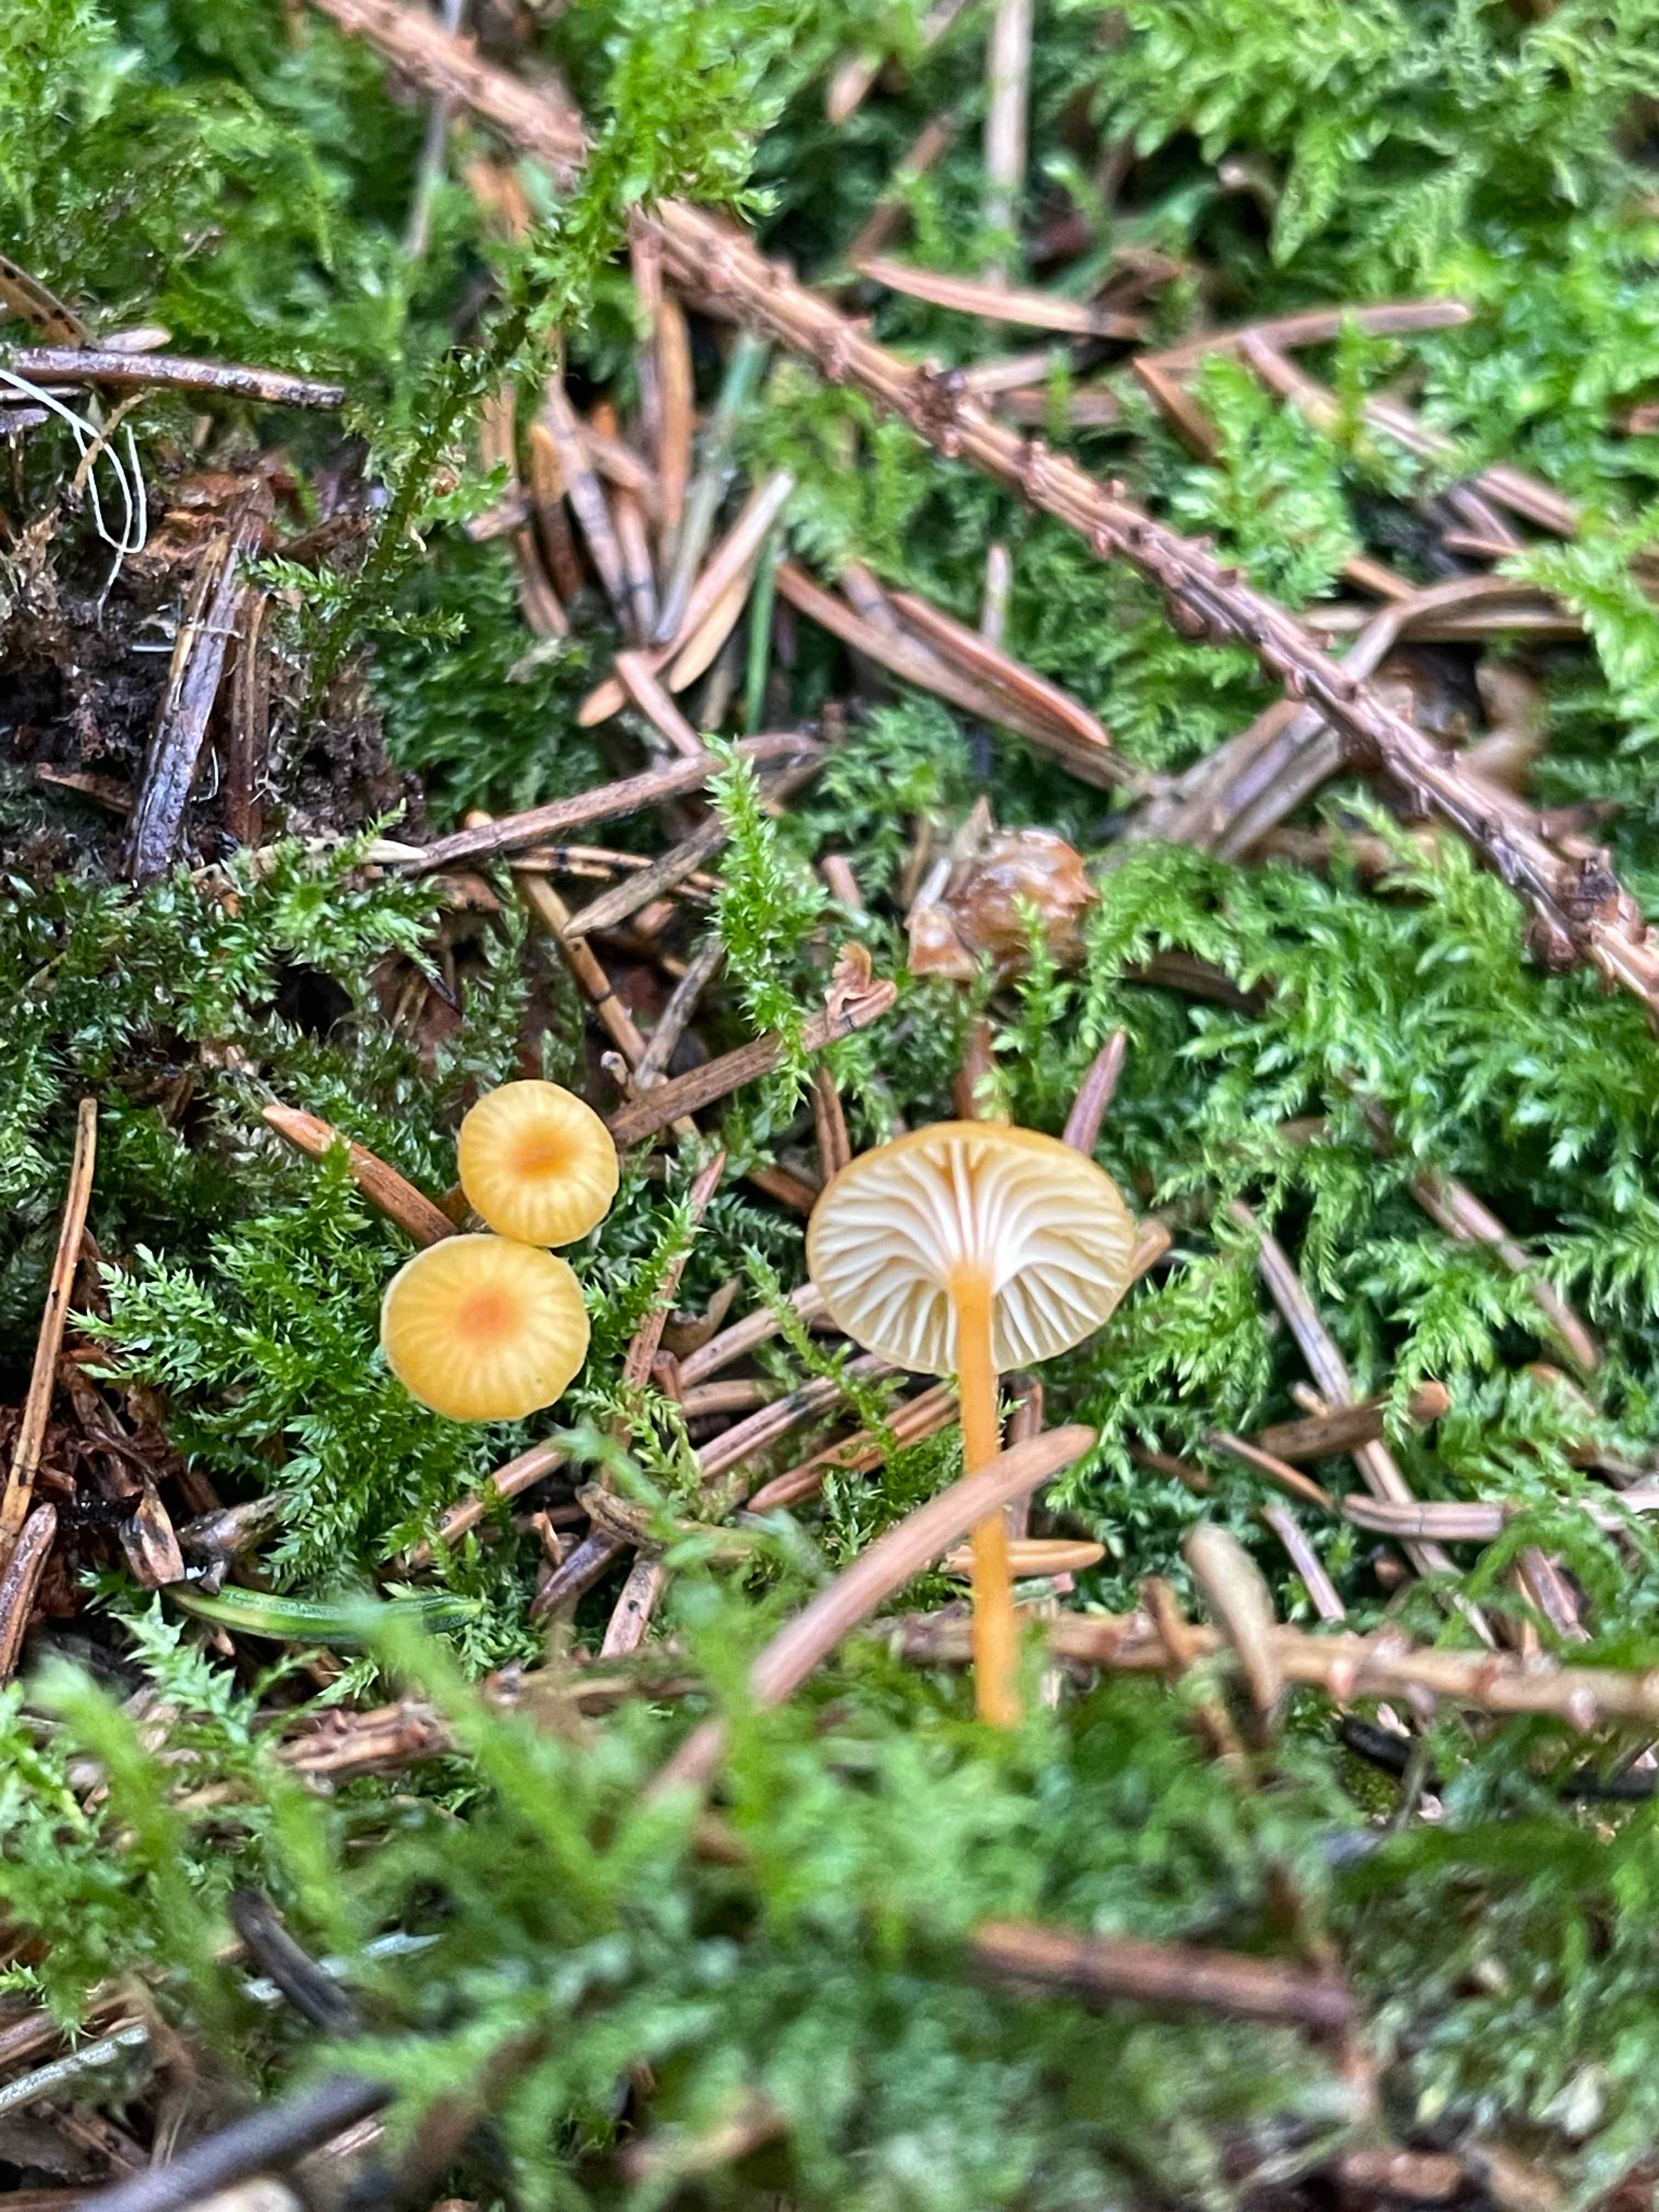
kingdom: Fungi
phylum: Basidiomycota
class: Agaricomycetes
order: Hymenochaetales
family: Rickenellaceae
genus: Rickenella
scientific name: Rickenella fibula
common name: orange mosnavlehat
